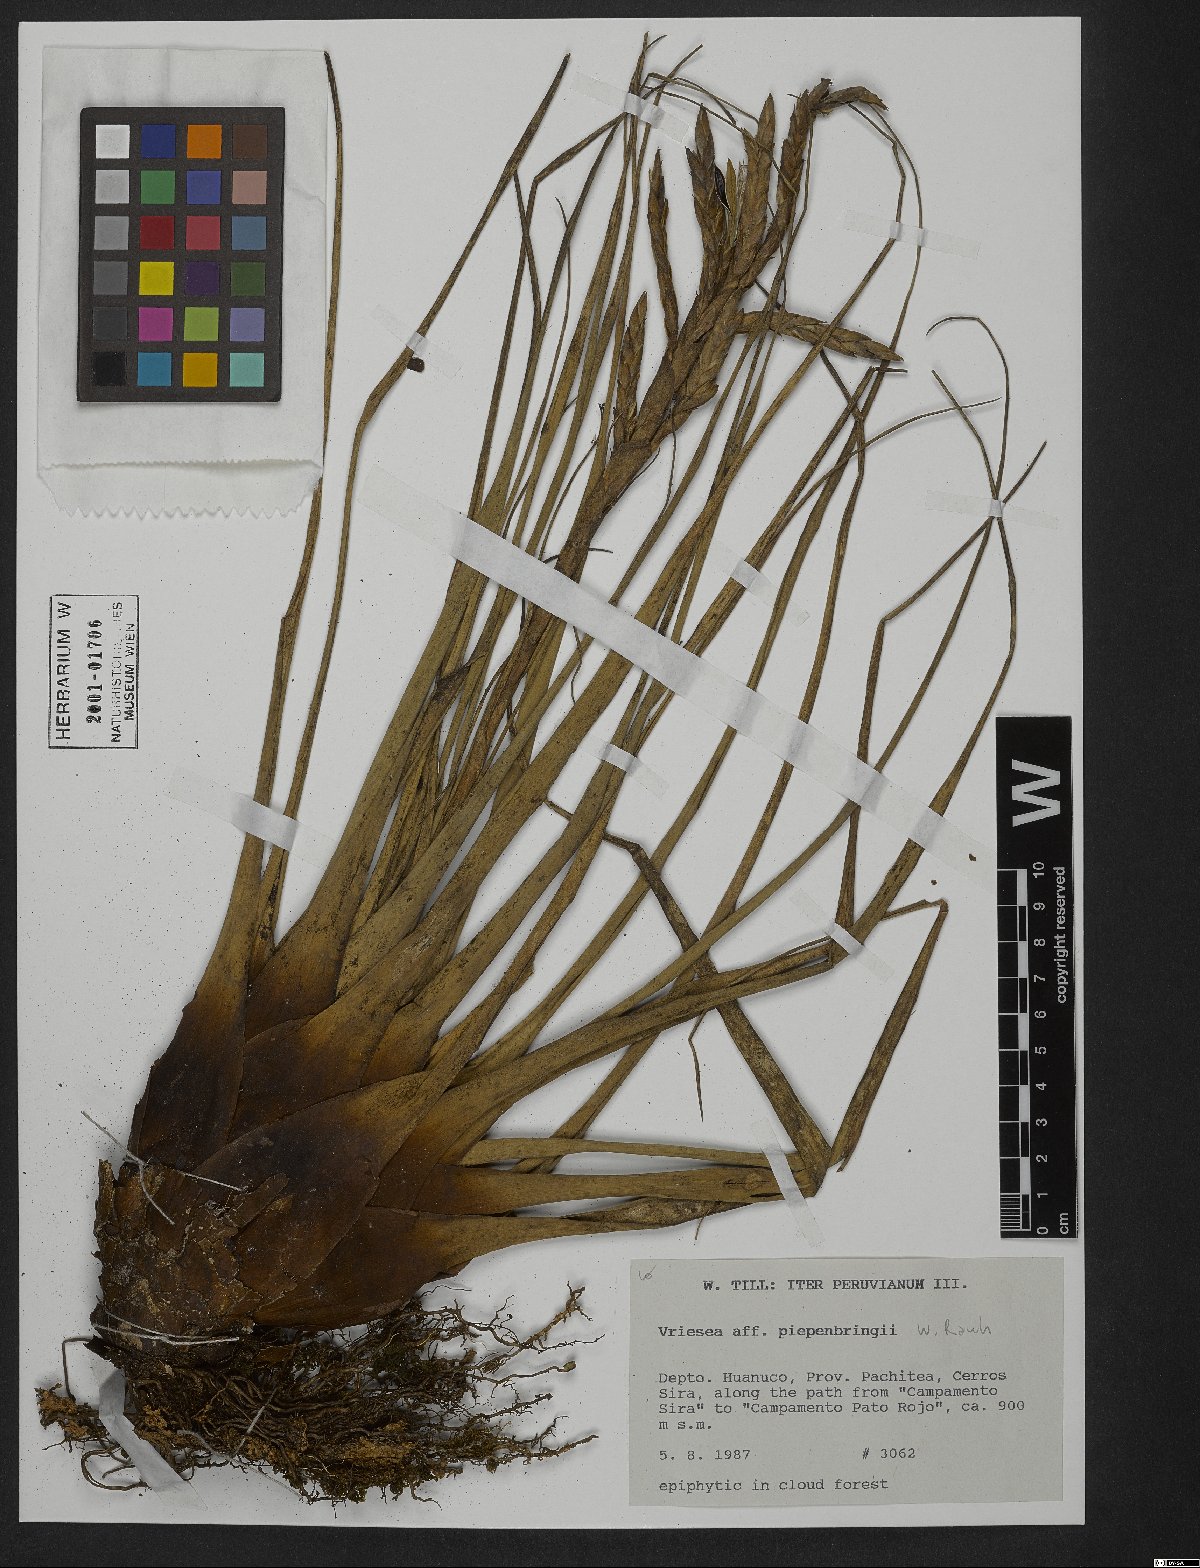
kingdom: Plantae
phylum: Tracheophyta
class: Liliopsida
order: Poales
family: Bromeliaceae
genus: Tillandsia
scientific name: Tillandsia piepenbringii
